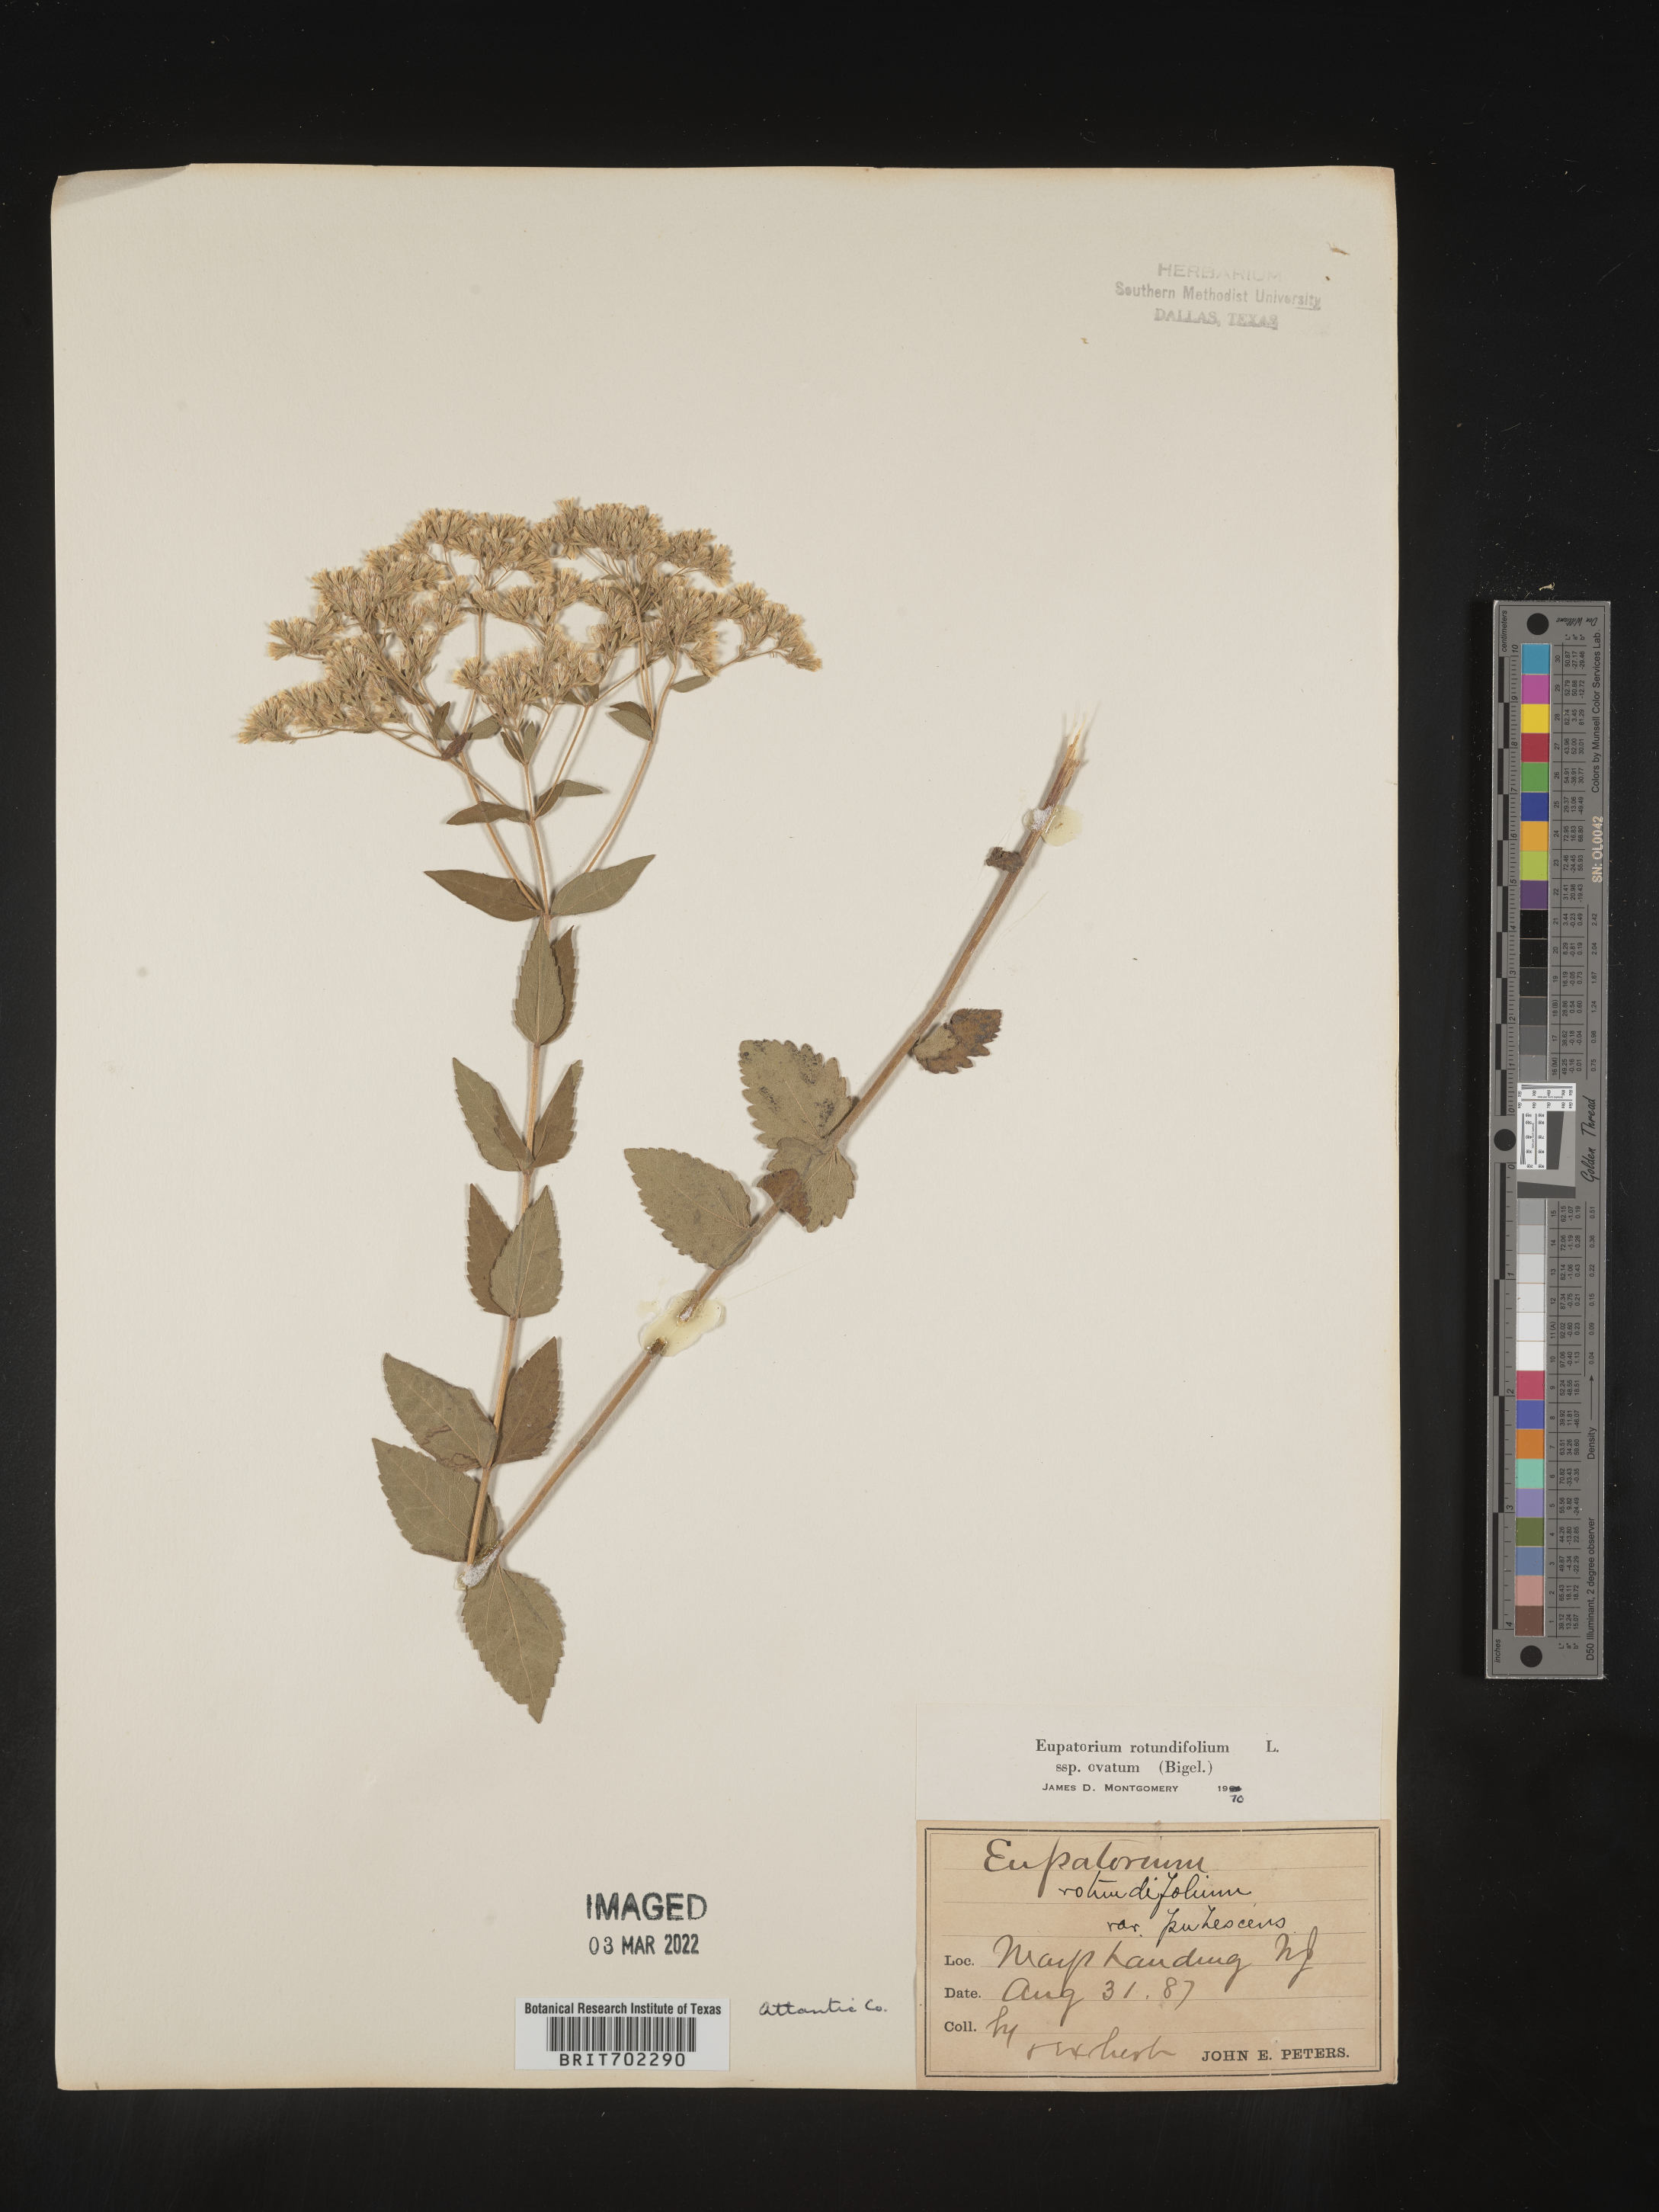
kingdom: Plantae
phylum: Tracheophyta
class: Magnoliopsida
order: Asterales
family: Asteraceae
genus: Eupatorium
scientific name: Eupatorium rotundifolium
